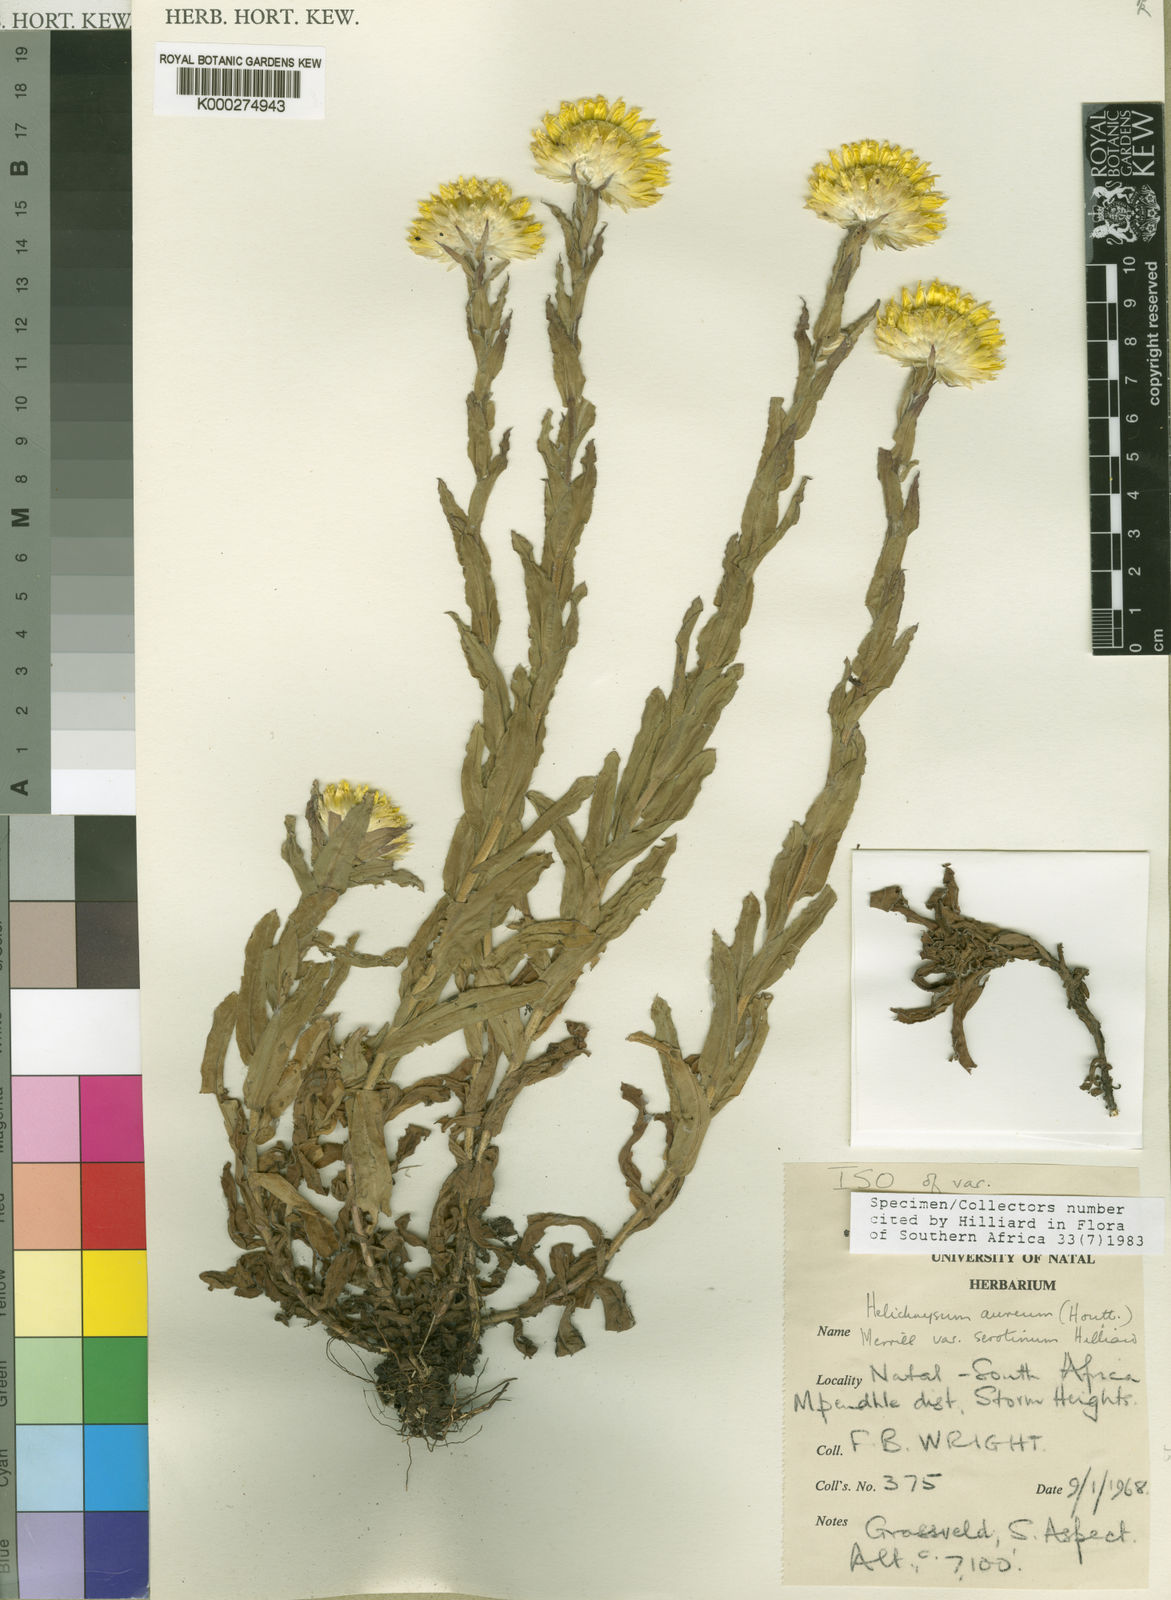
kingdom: Plantae
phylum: Tracheophyta
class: Magnoliopsida
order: Asterales
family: Asteraceae
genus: Helichrysum
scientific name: Helichrysum aureum
